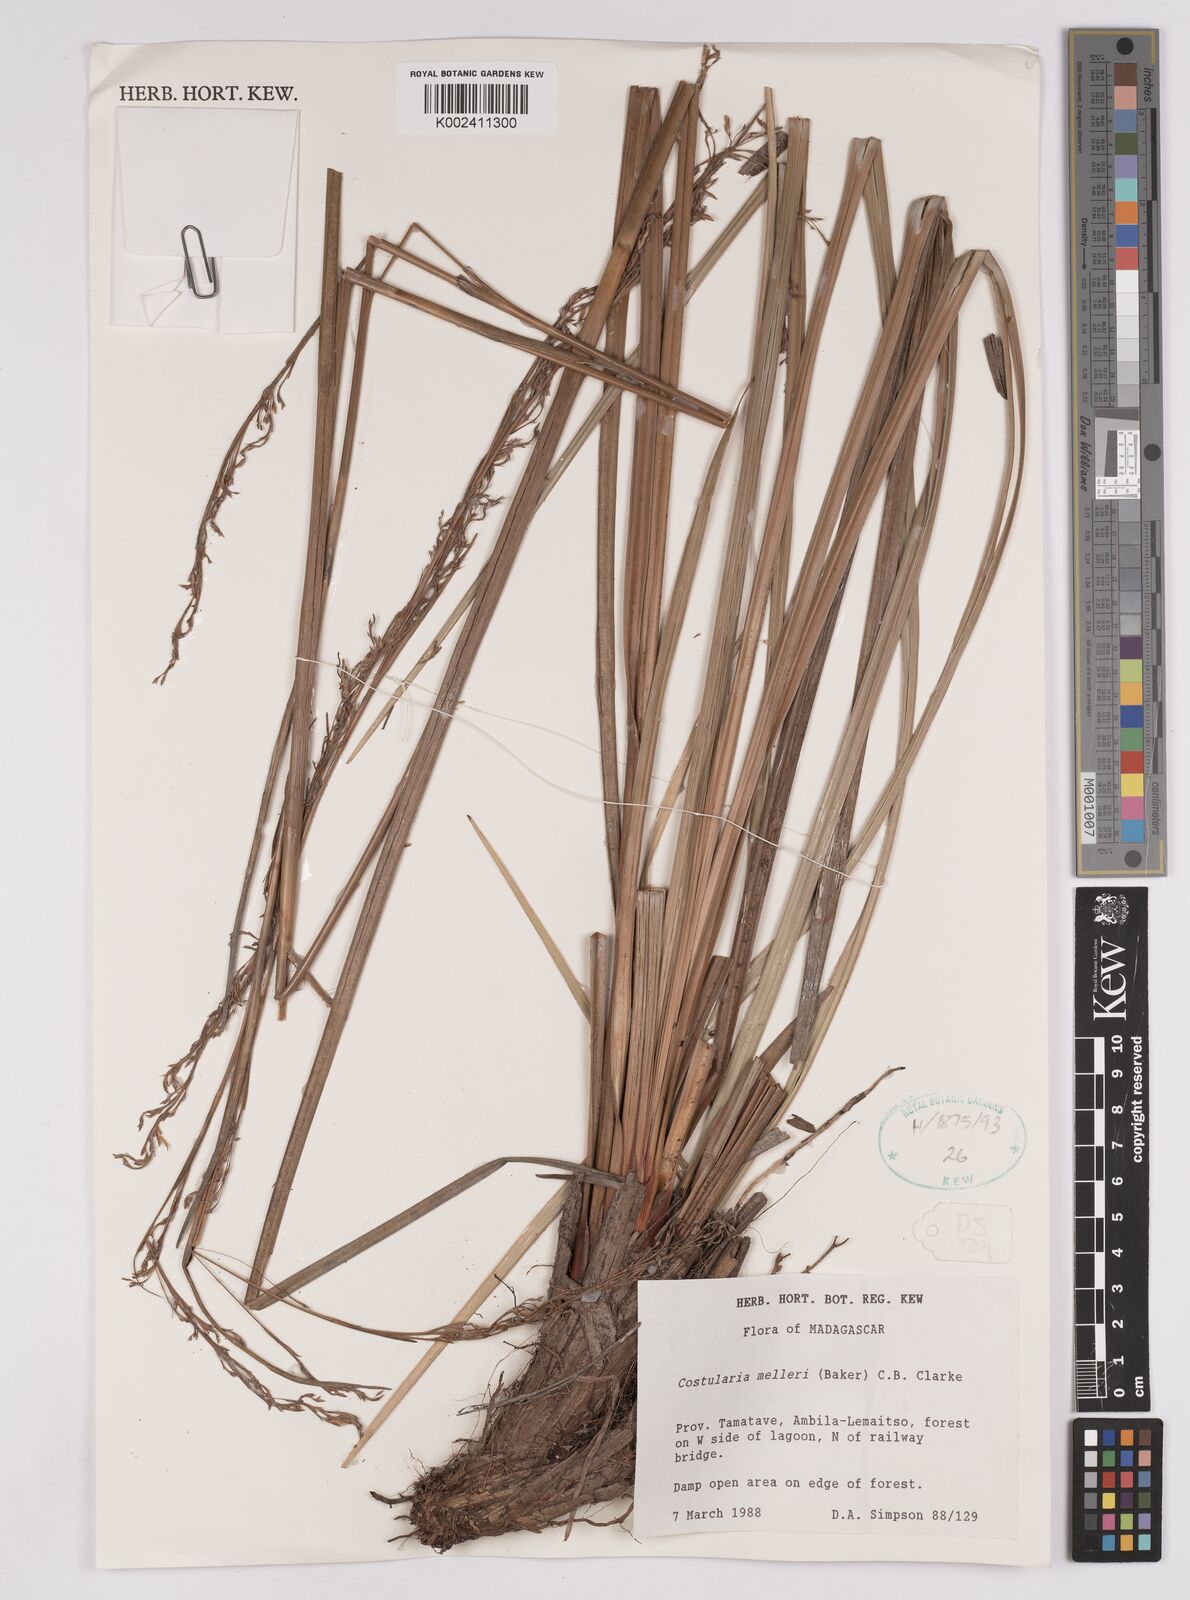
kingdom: Plantae
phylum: Tracheophyta
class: Liliopsida
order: Poales
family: Cyperaceae
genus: Costularia
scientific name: Costularia melleri
